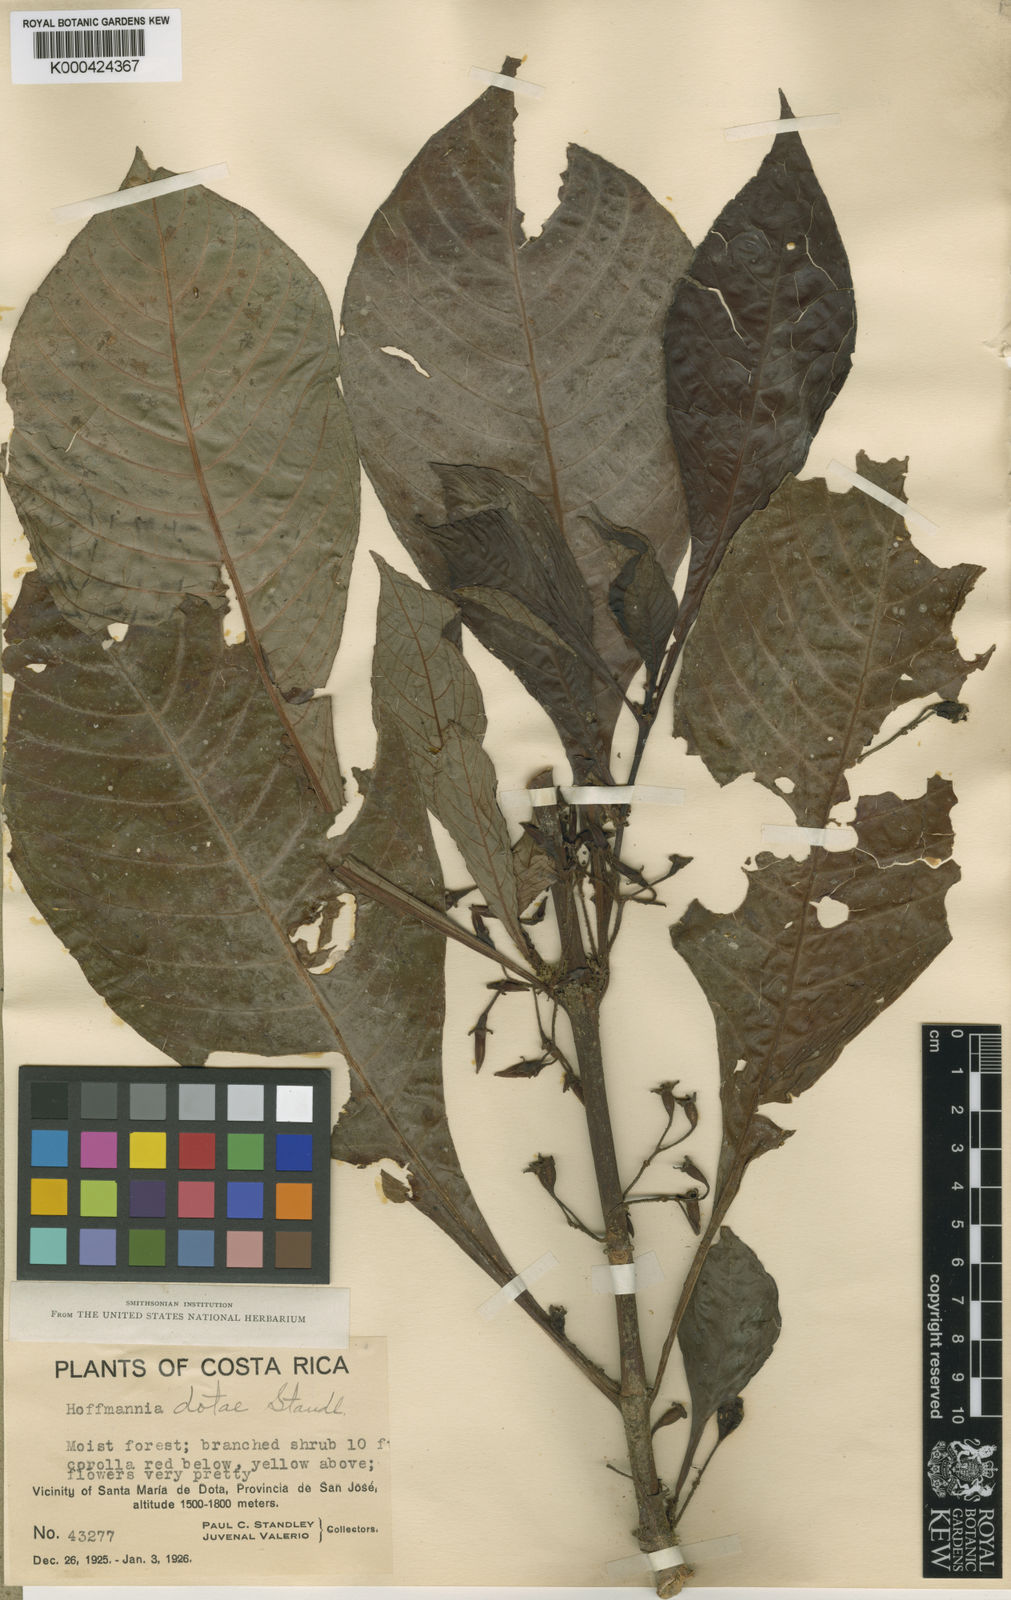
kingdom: Plantae
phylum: Tracheophyta
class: Magnoliopsida
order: Gentianales
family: Rubiaceae
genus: Hoffmannia
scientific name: Hoffmannia dotae
